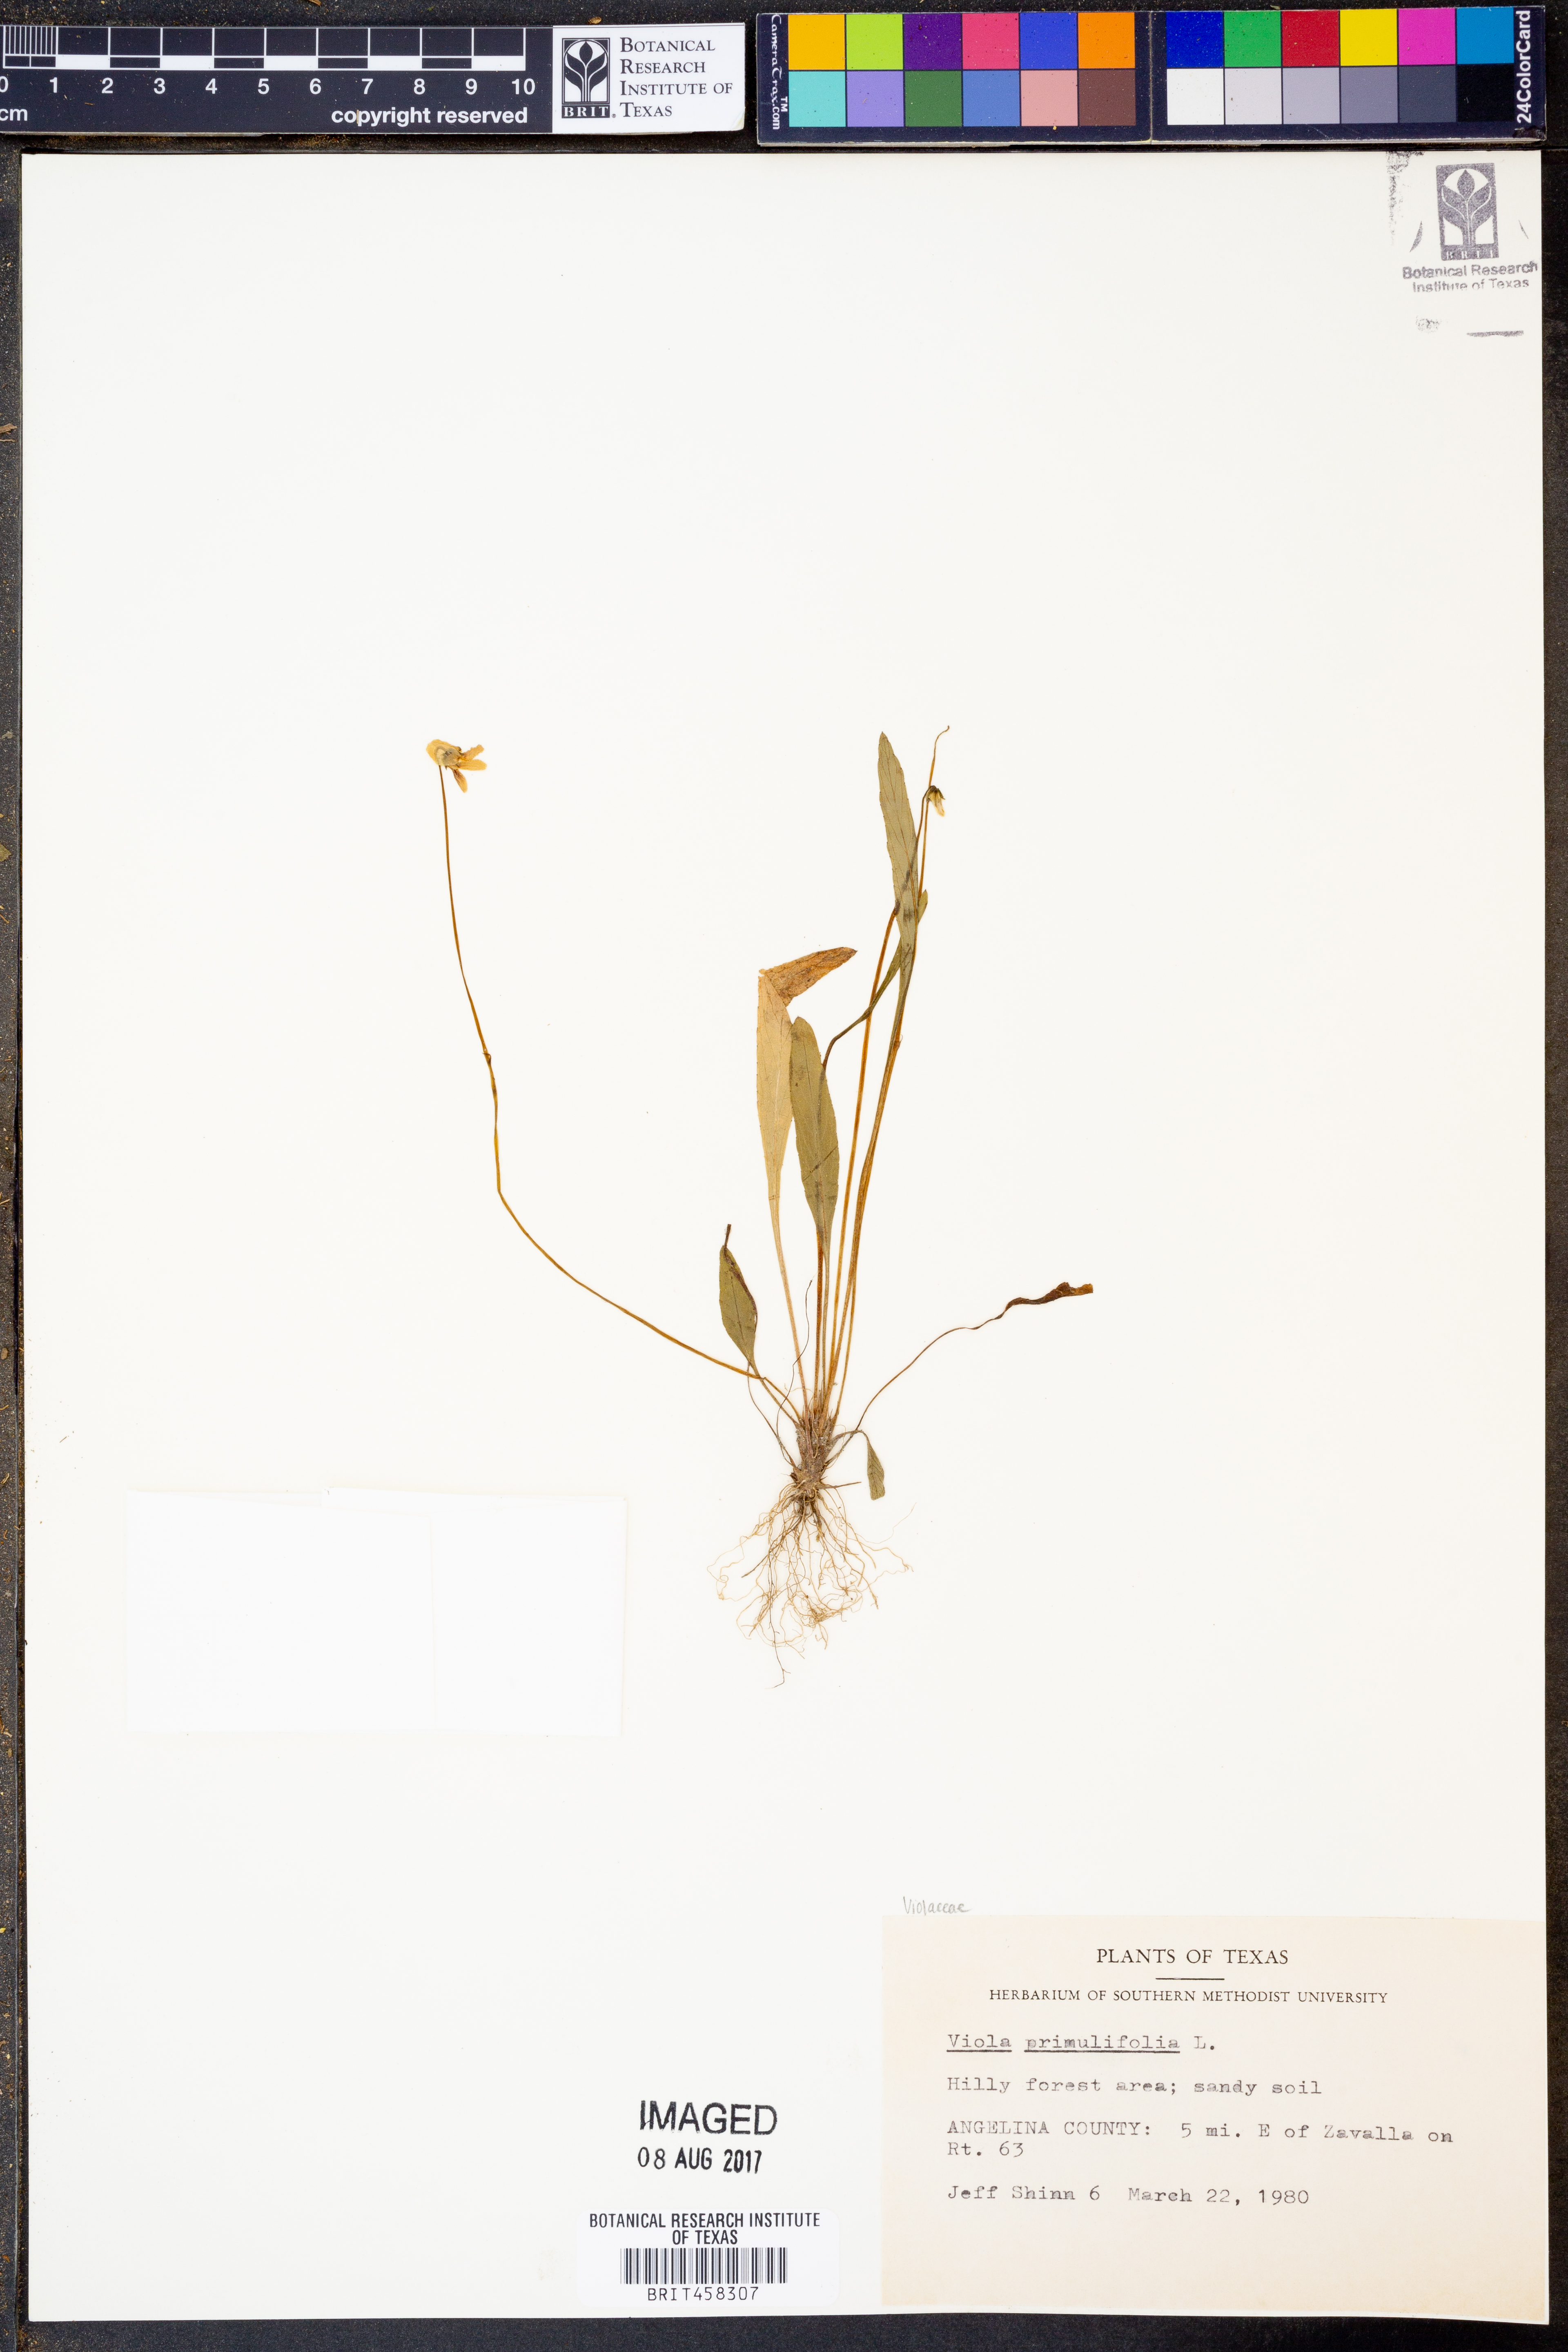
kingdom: Plantae
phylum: Tracheophyta
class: Magnoliopsida
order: Malpighiales
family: Violaceae
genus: Viola
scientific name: Viola primulifolia
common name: Primrose-leaf violet
